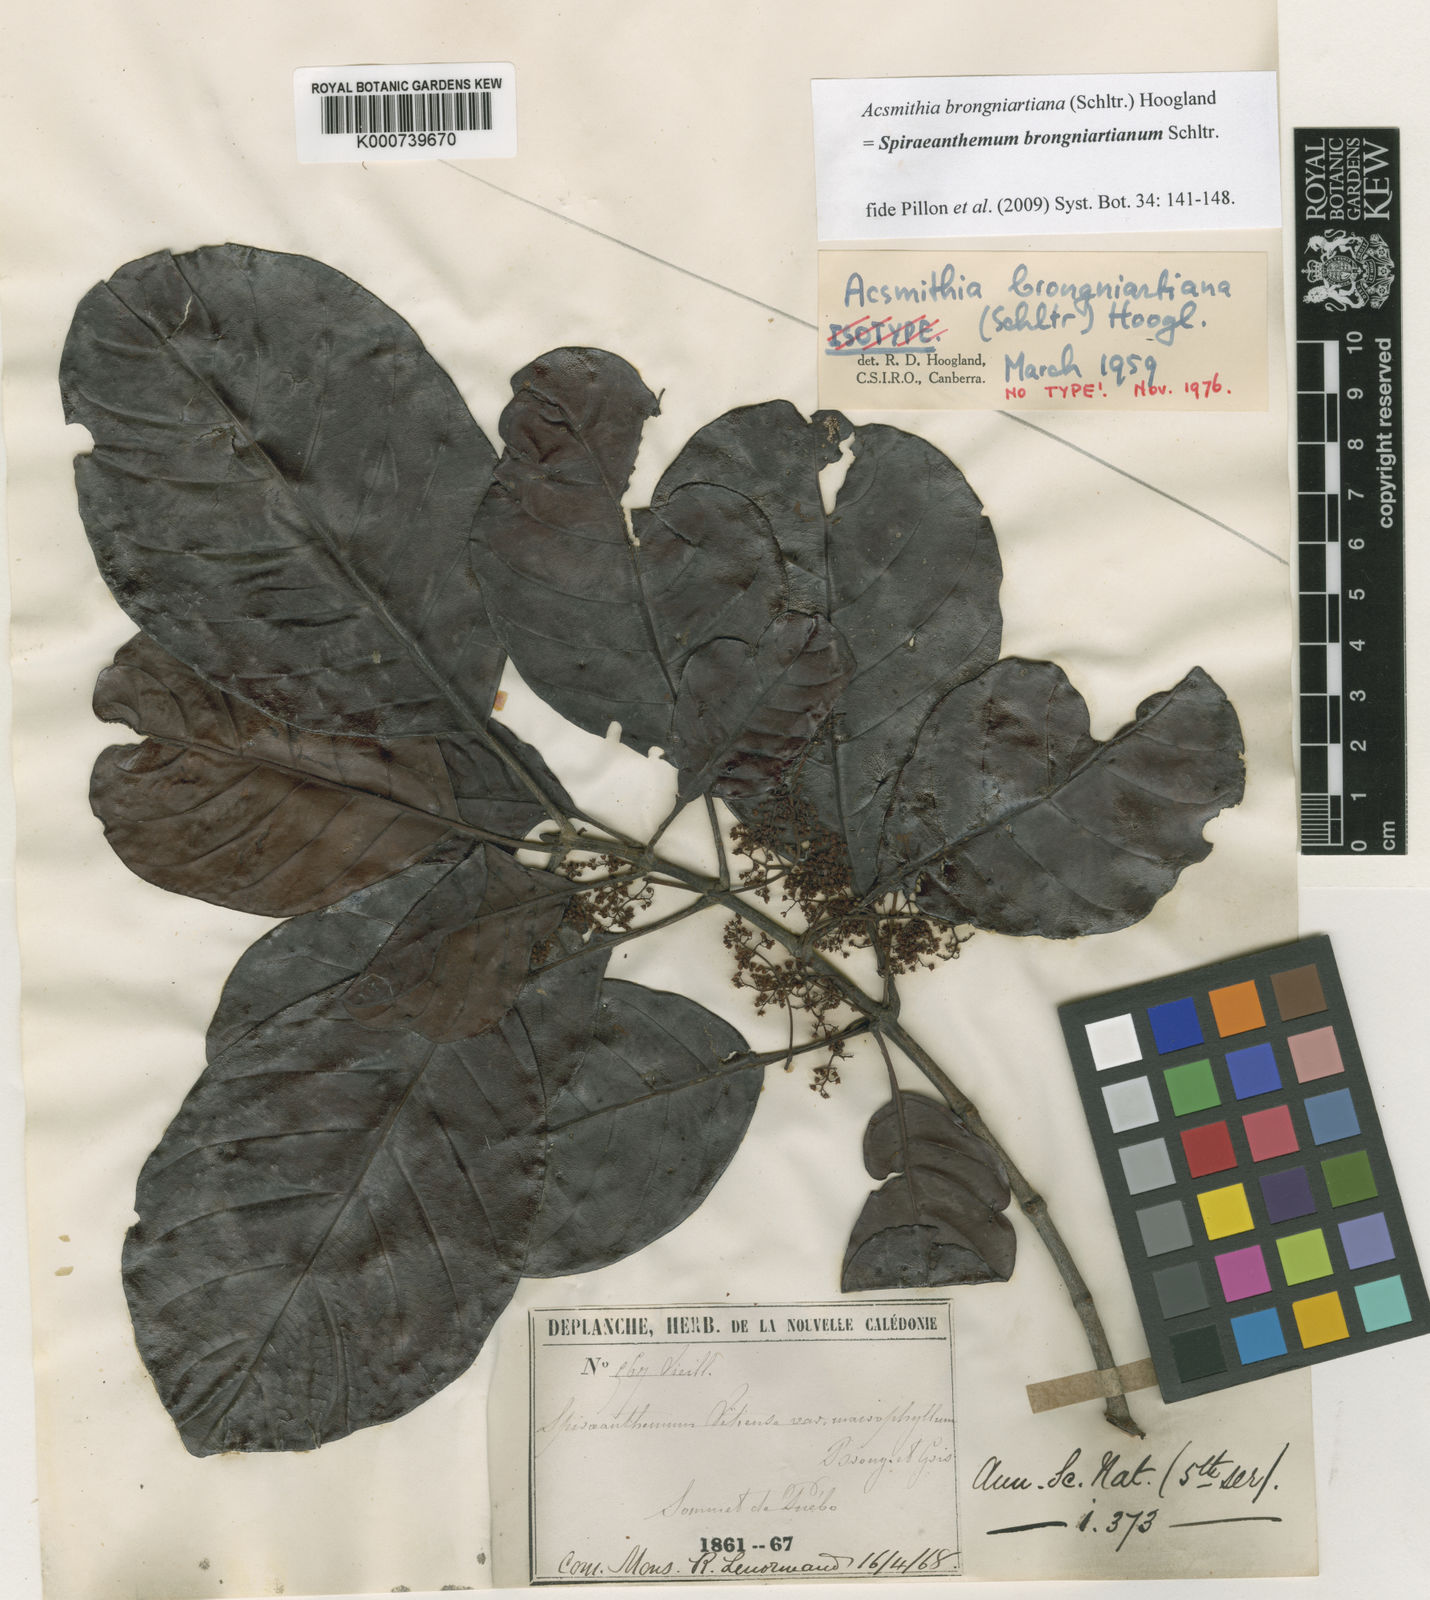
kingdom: Plantae
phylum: Tracheophyta
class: Magnoliopsida
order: Oxalidales
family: Cunoniaceae
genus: Spiraeanthemum
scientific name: Spiraeanthemum brongniartianum
